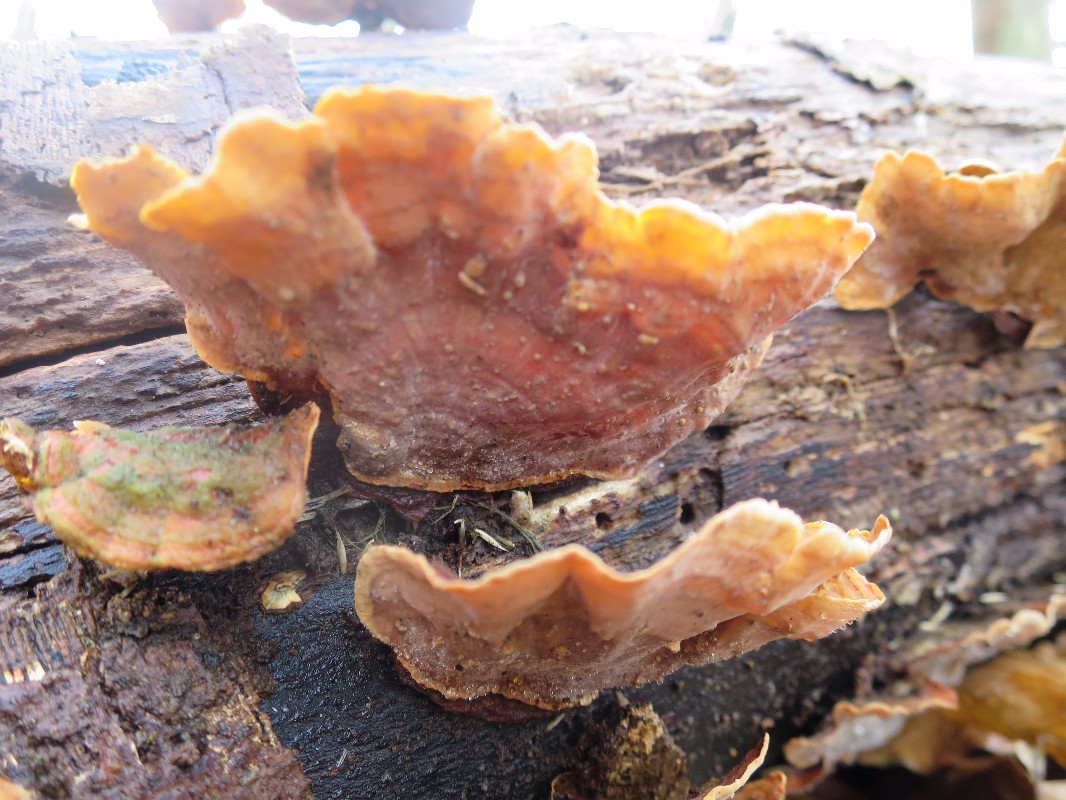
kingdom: Fungi
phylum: Basidiomycota
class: Agaricomycetes
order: Russulales
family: Stereaceae
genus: Stereum
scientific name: Stereum subtomentosum
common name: smuk lædersvamp
